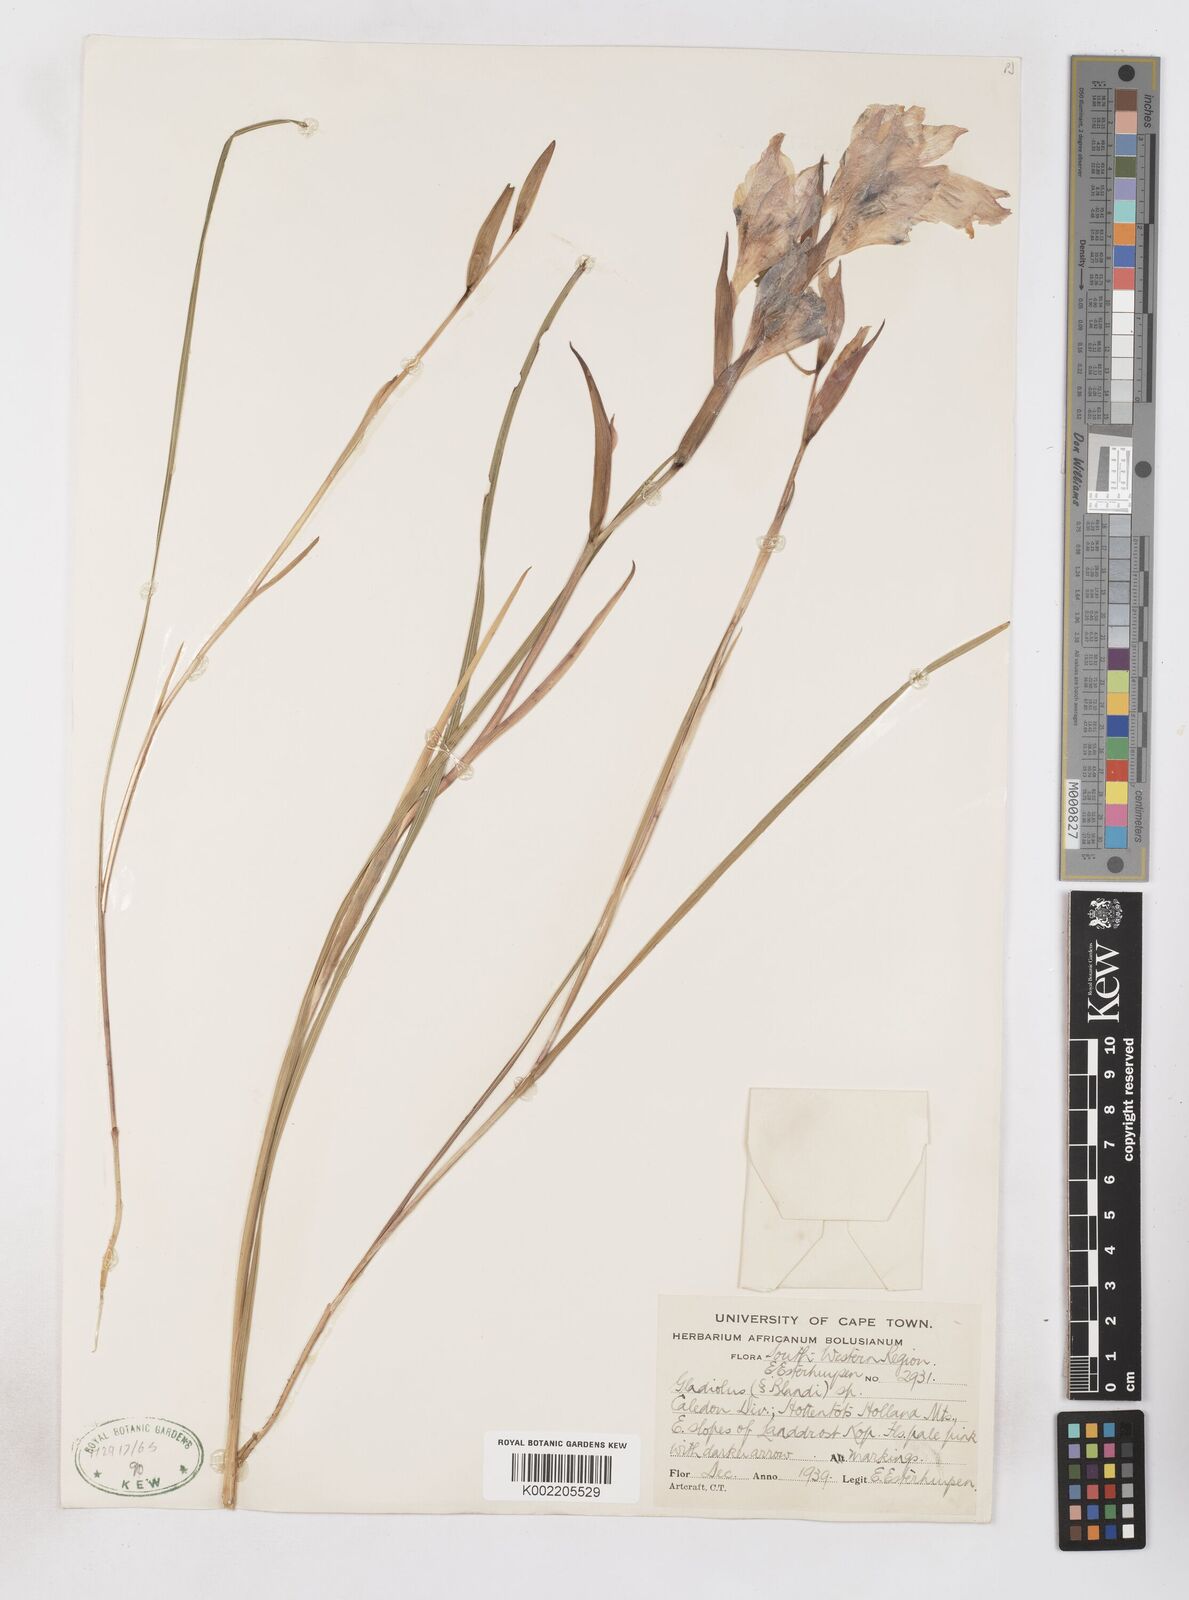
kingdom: Plantae
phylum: Tracheophyta
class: Liliopsida
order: Asparagales
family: Iridaceae
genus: Gladiolus
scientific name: Gladiolus carneus
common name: Painted-lady
